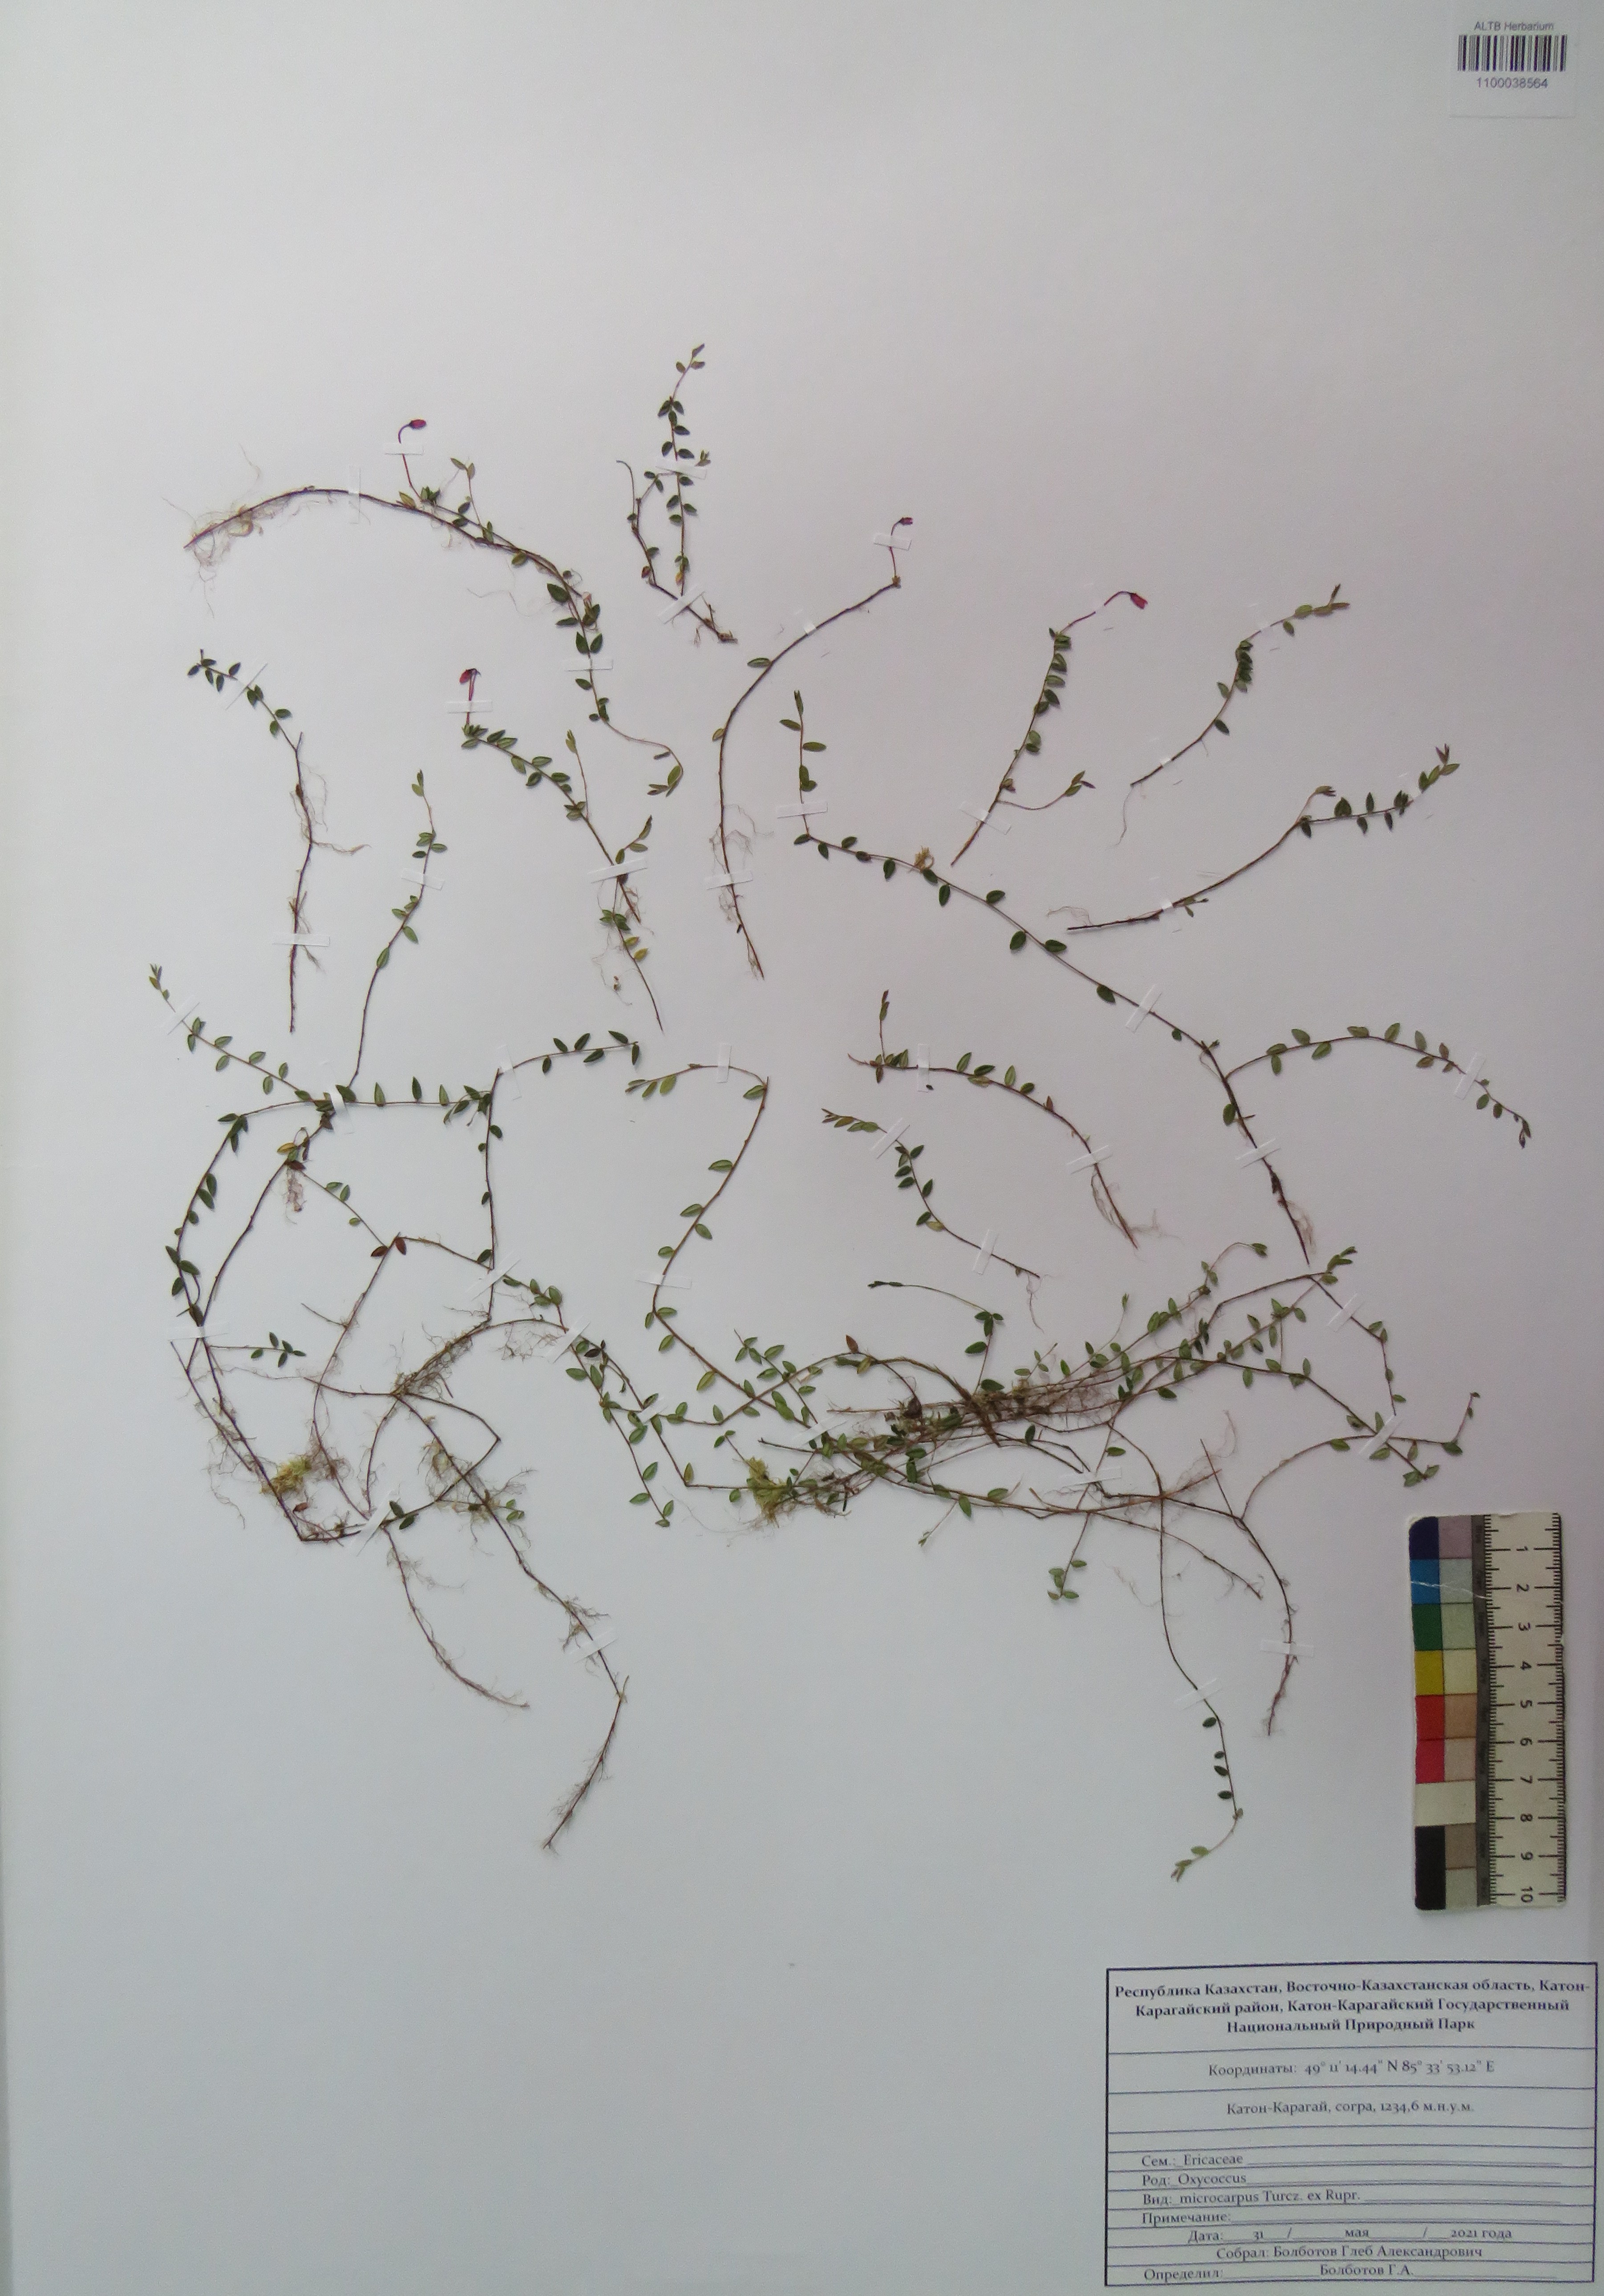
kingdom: Plantae
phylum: Tracheophyta
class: Magnoliopsida
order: Ericales
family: Ericaceae
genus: Vaccinium
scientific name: Vaccinium microcarpum
